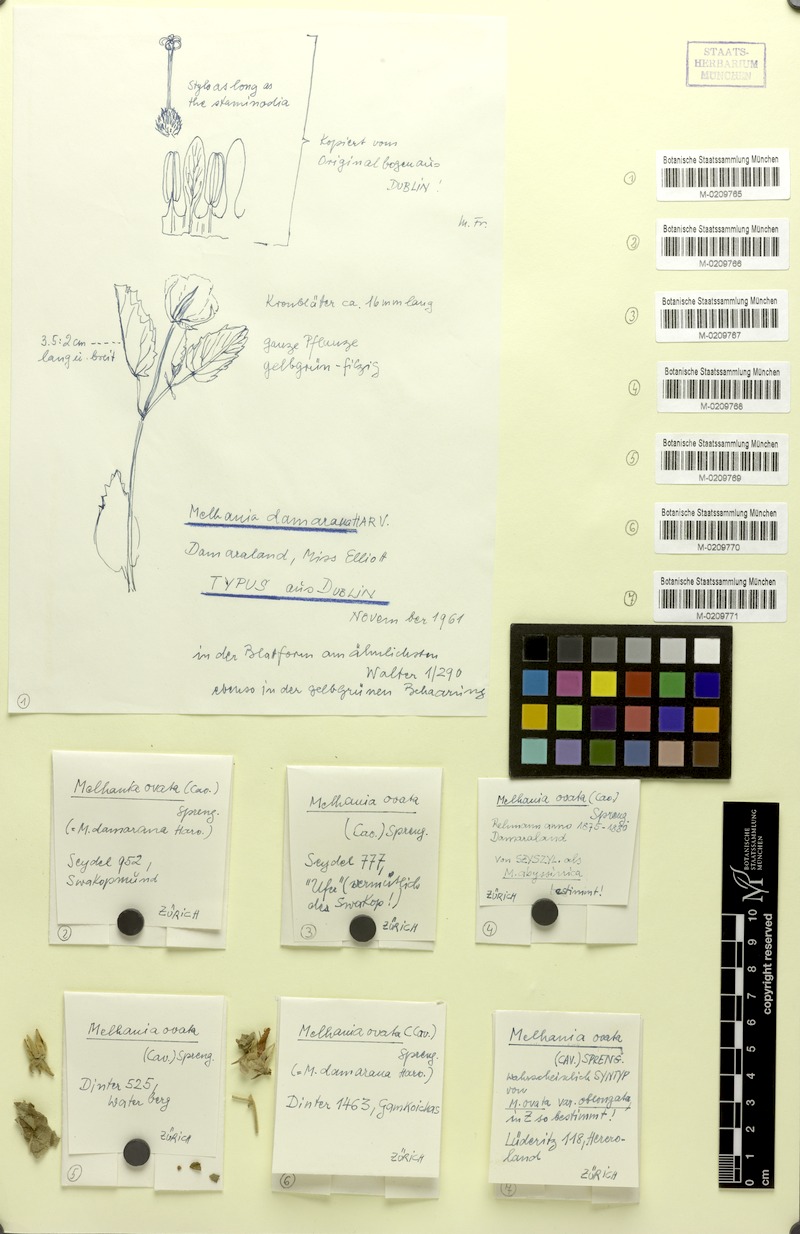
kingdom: Plantae
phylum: Tracheophyta
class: Magnoliopsida
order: Malvales
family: Malvaceae
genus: Melhania
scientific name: Melhania ovata
